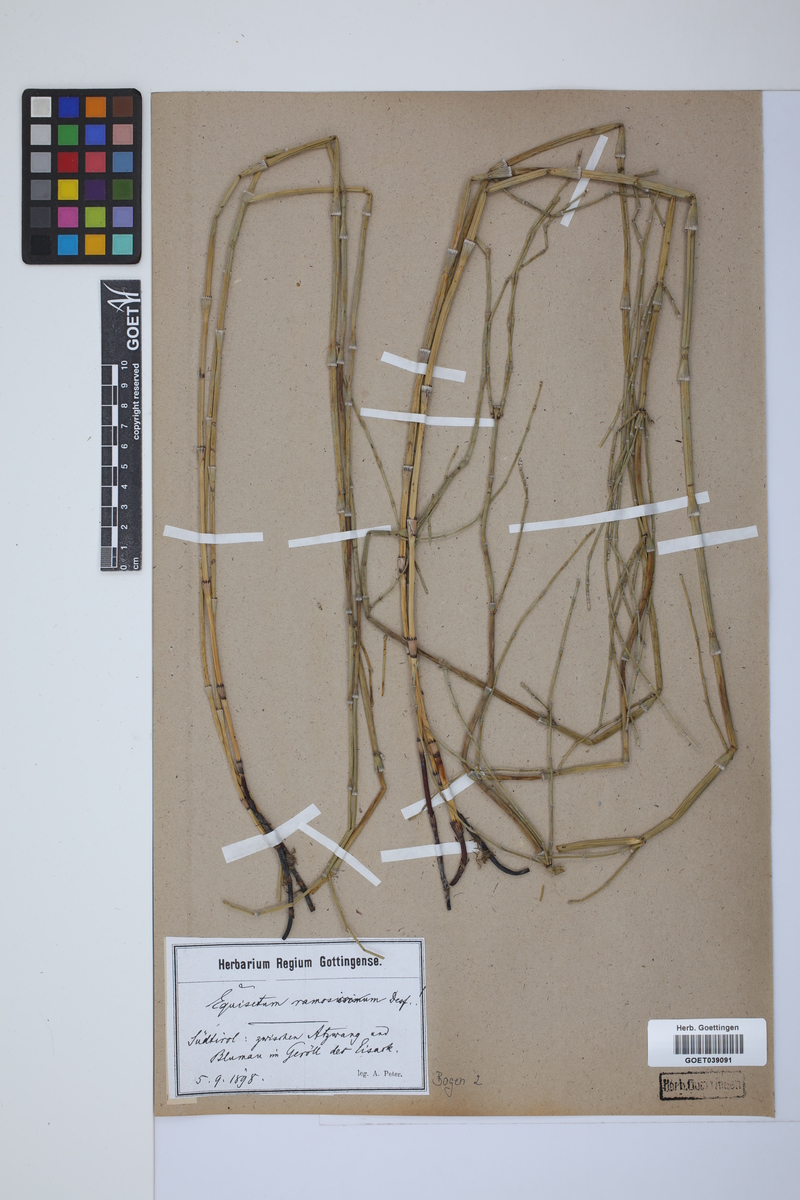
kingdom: Plantae
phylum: Tracheophyta
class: Polypodiopsida
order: Equisetales
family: Equisetaceae
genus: Equisetum
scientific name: Equisetum giganteum
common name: Giant horsetail
